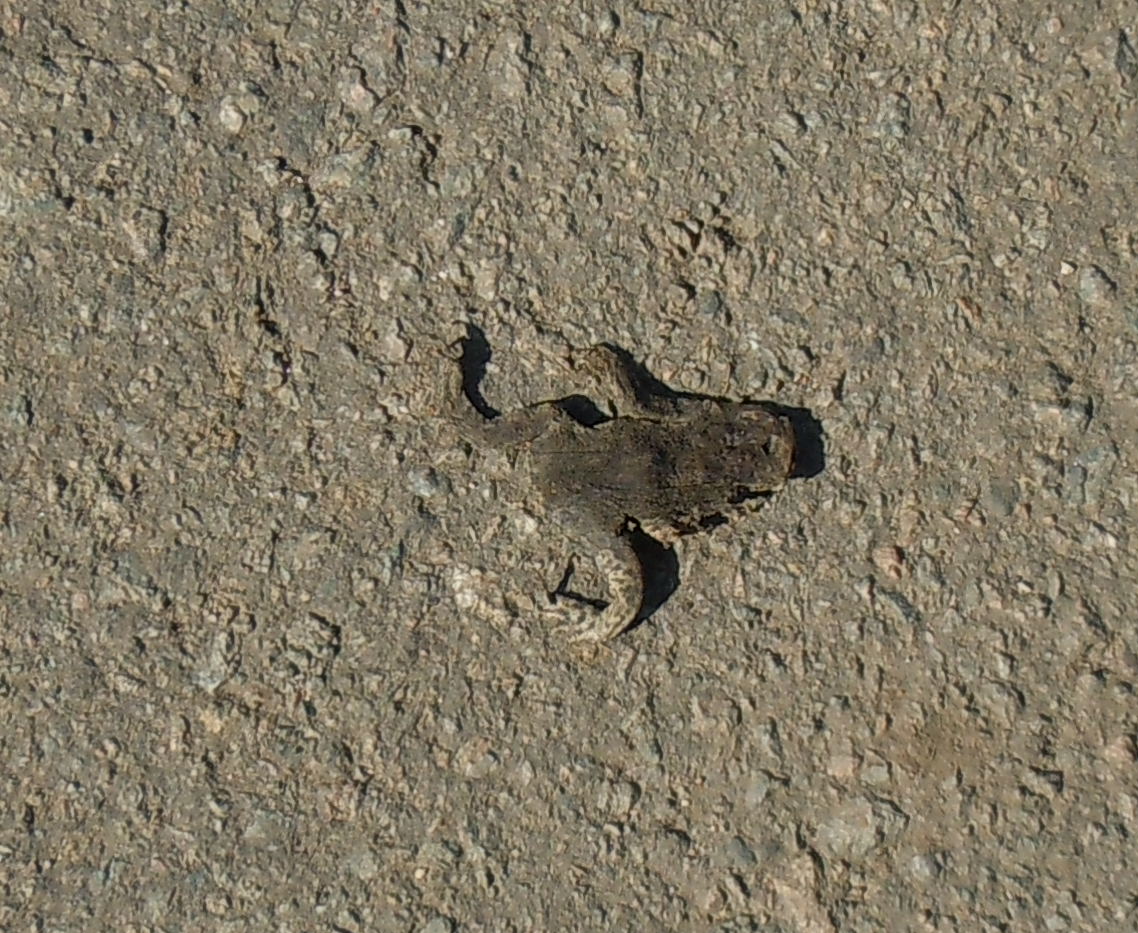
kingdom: Animalia
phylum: Chordata
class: Amphibia
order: Anura
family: Bufonidae
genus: Bufo
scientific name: Bufo bufo
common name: Common toad
